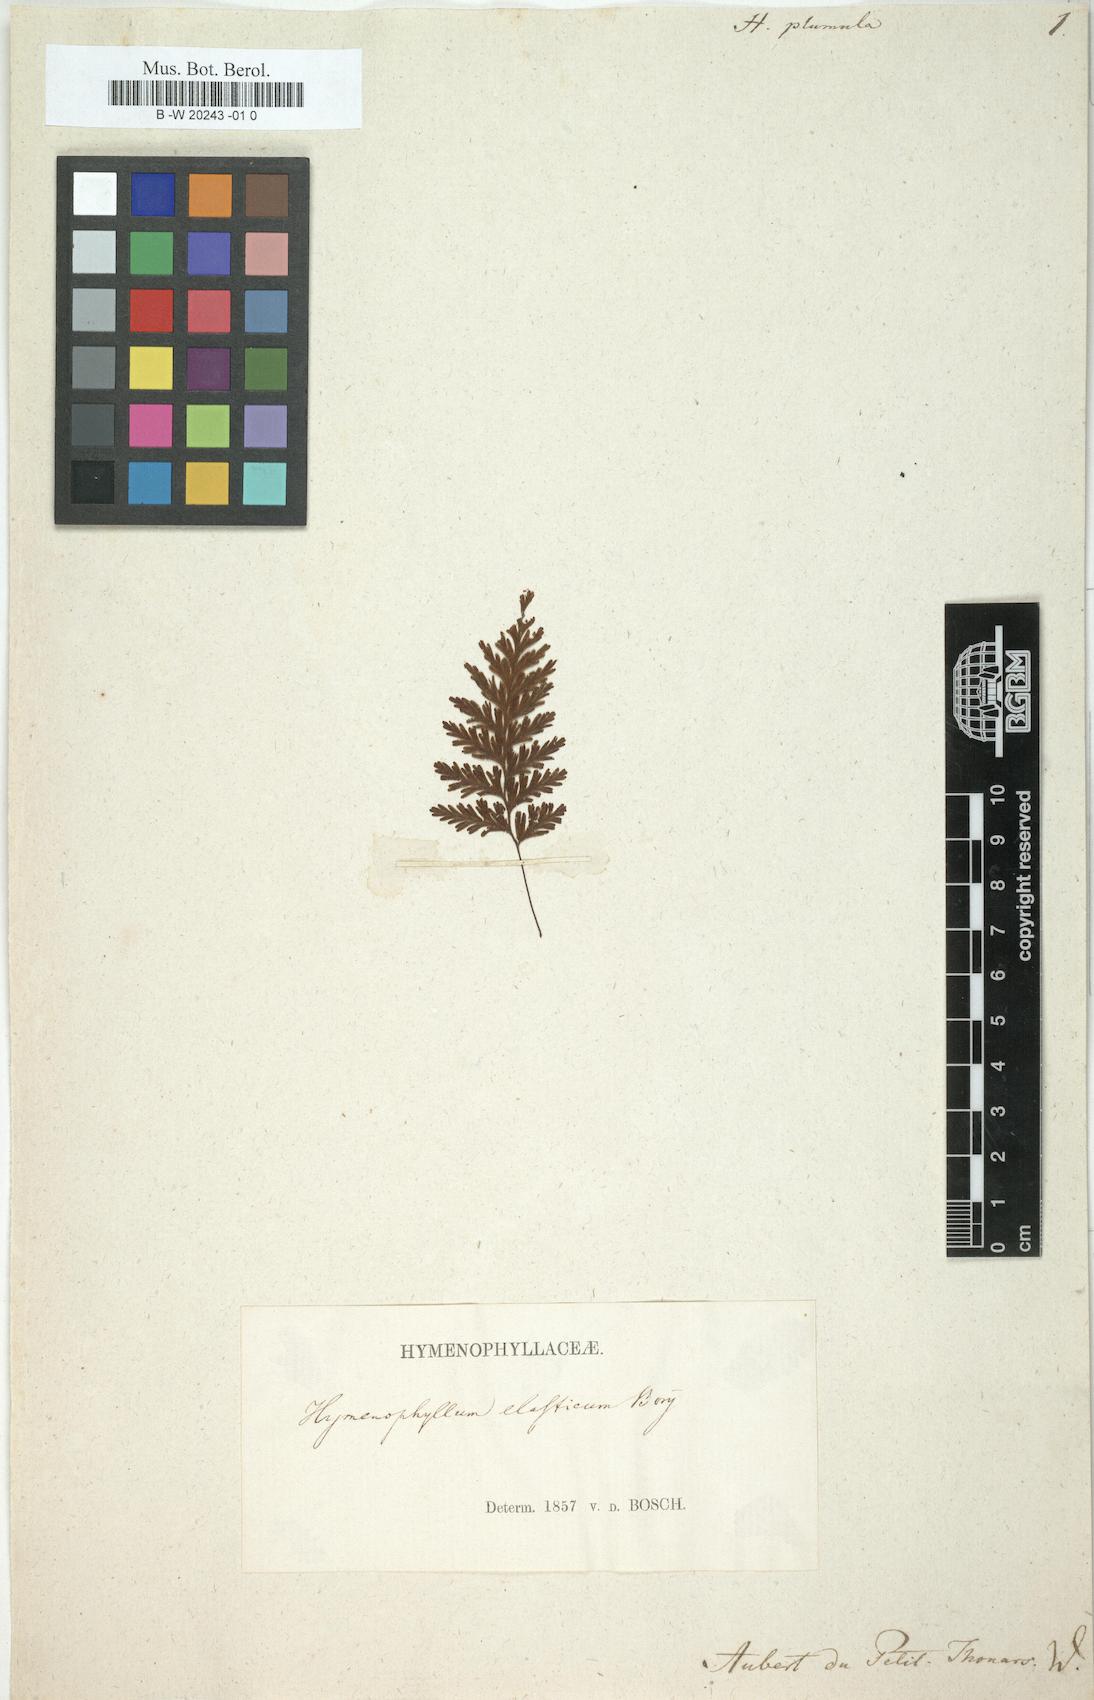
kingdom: Plantae
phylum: Tracheophyta
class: Polypodiopsida
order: Hymenophyllales
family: Hymenophyllaceae
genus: Hymenophyllum
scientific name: Hymenophyllum plumosum
